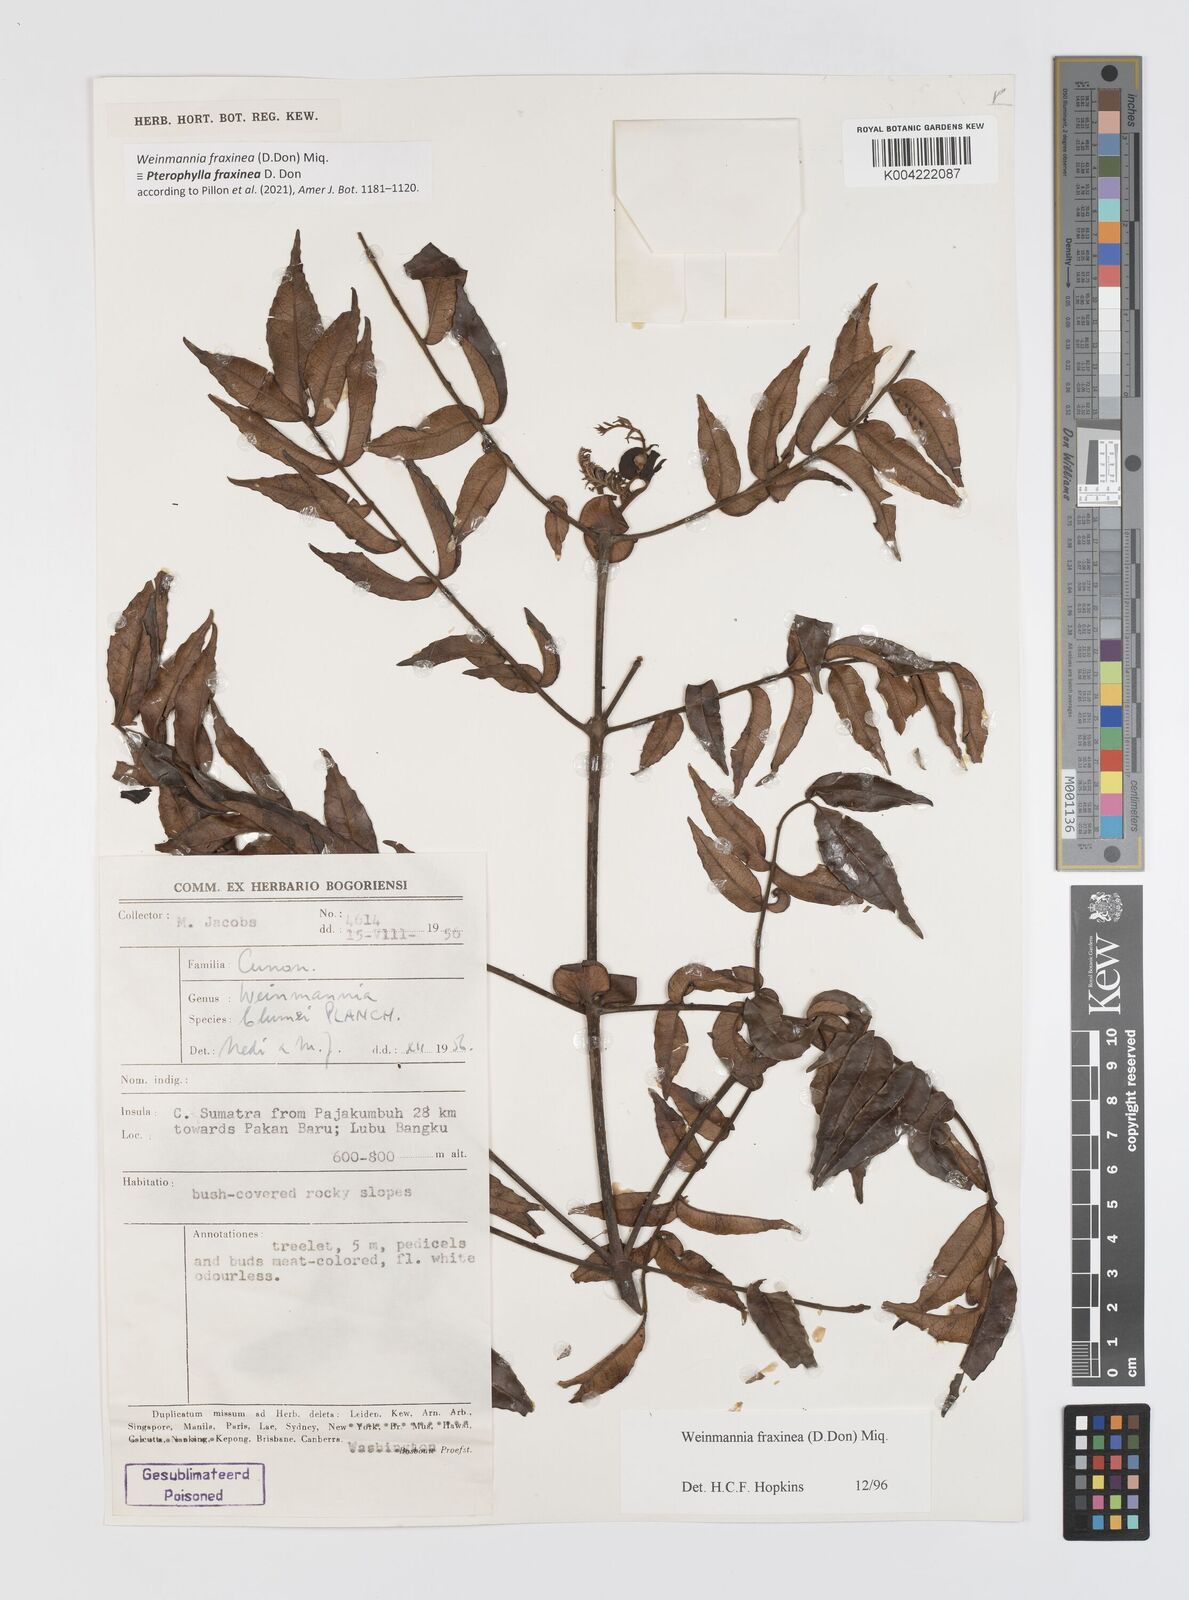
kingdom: Plantae
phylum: Tracheophyta
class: Magnoliopsida
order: Oxalidales
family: Cunoniaceae
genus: Pterophylla
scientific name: Pterophylla fraxinea
